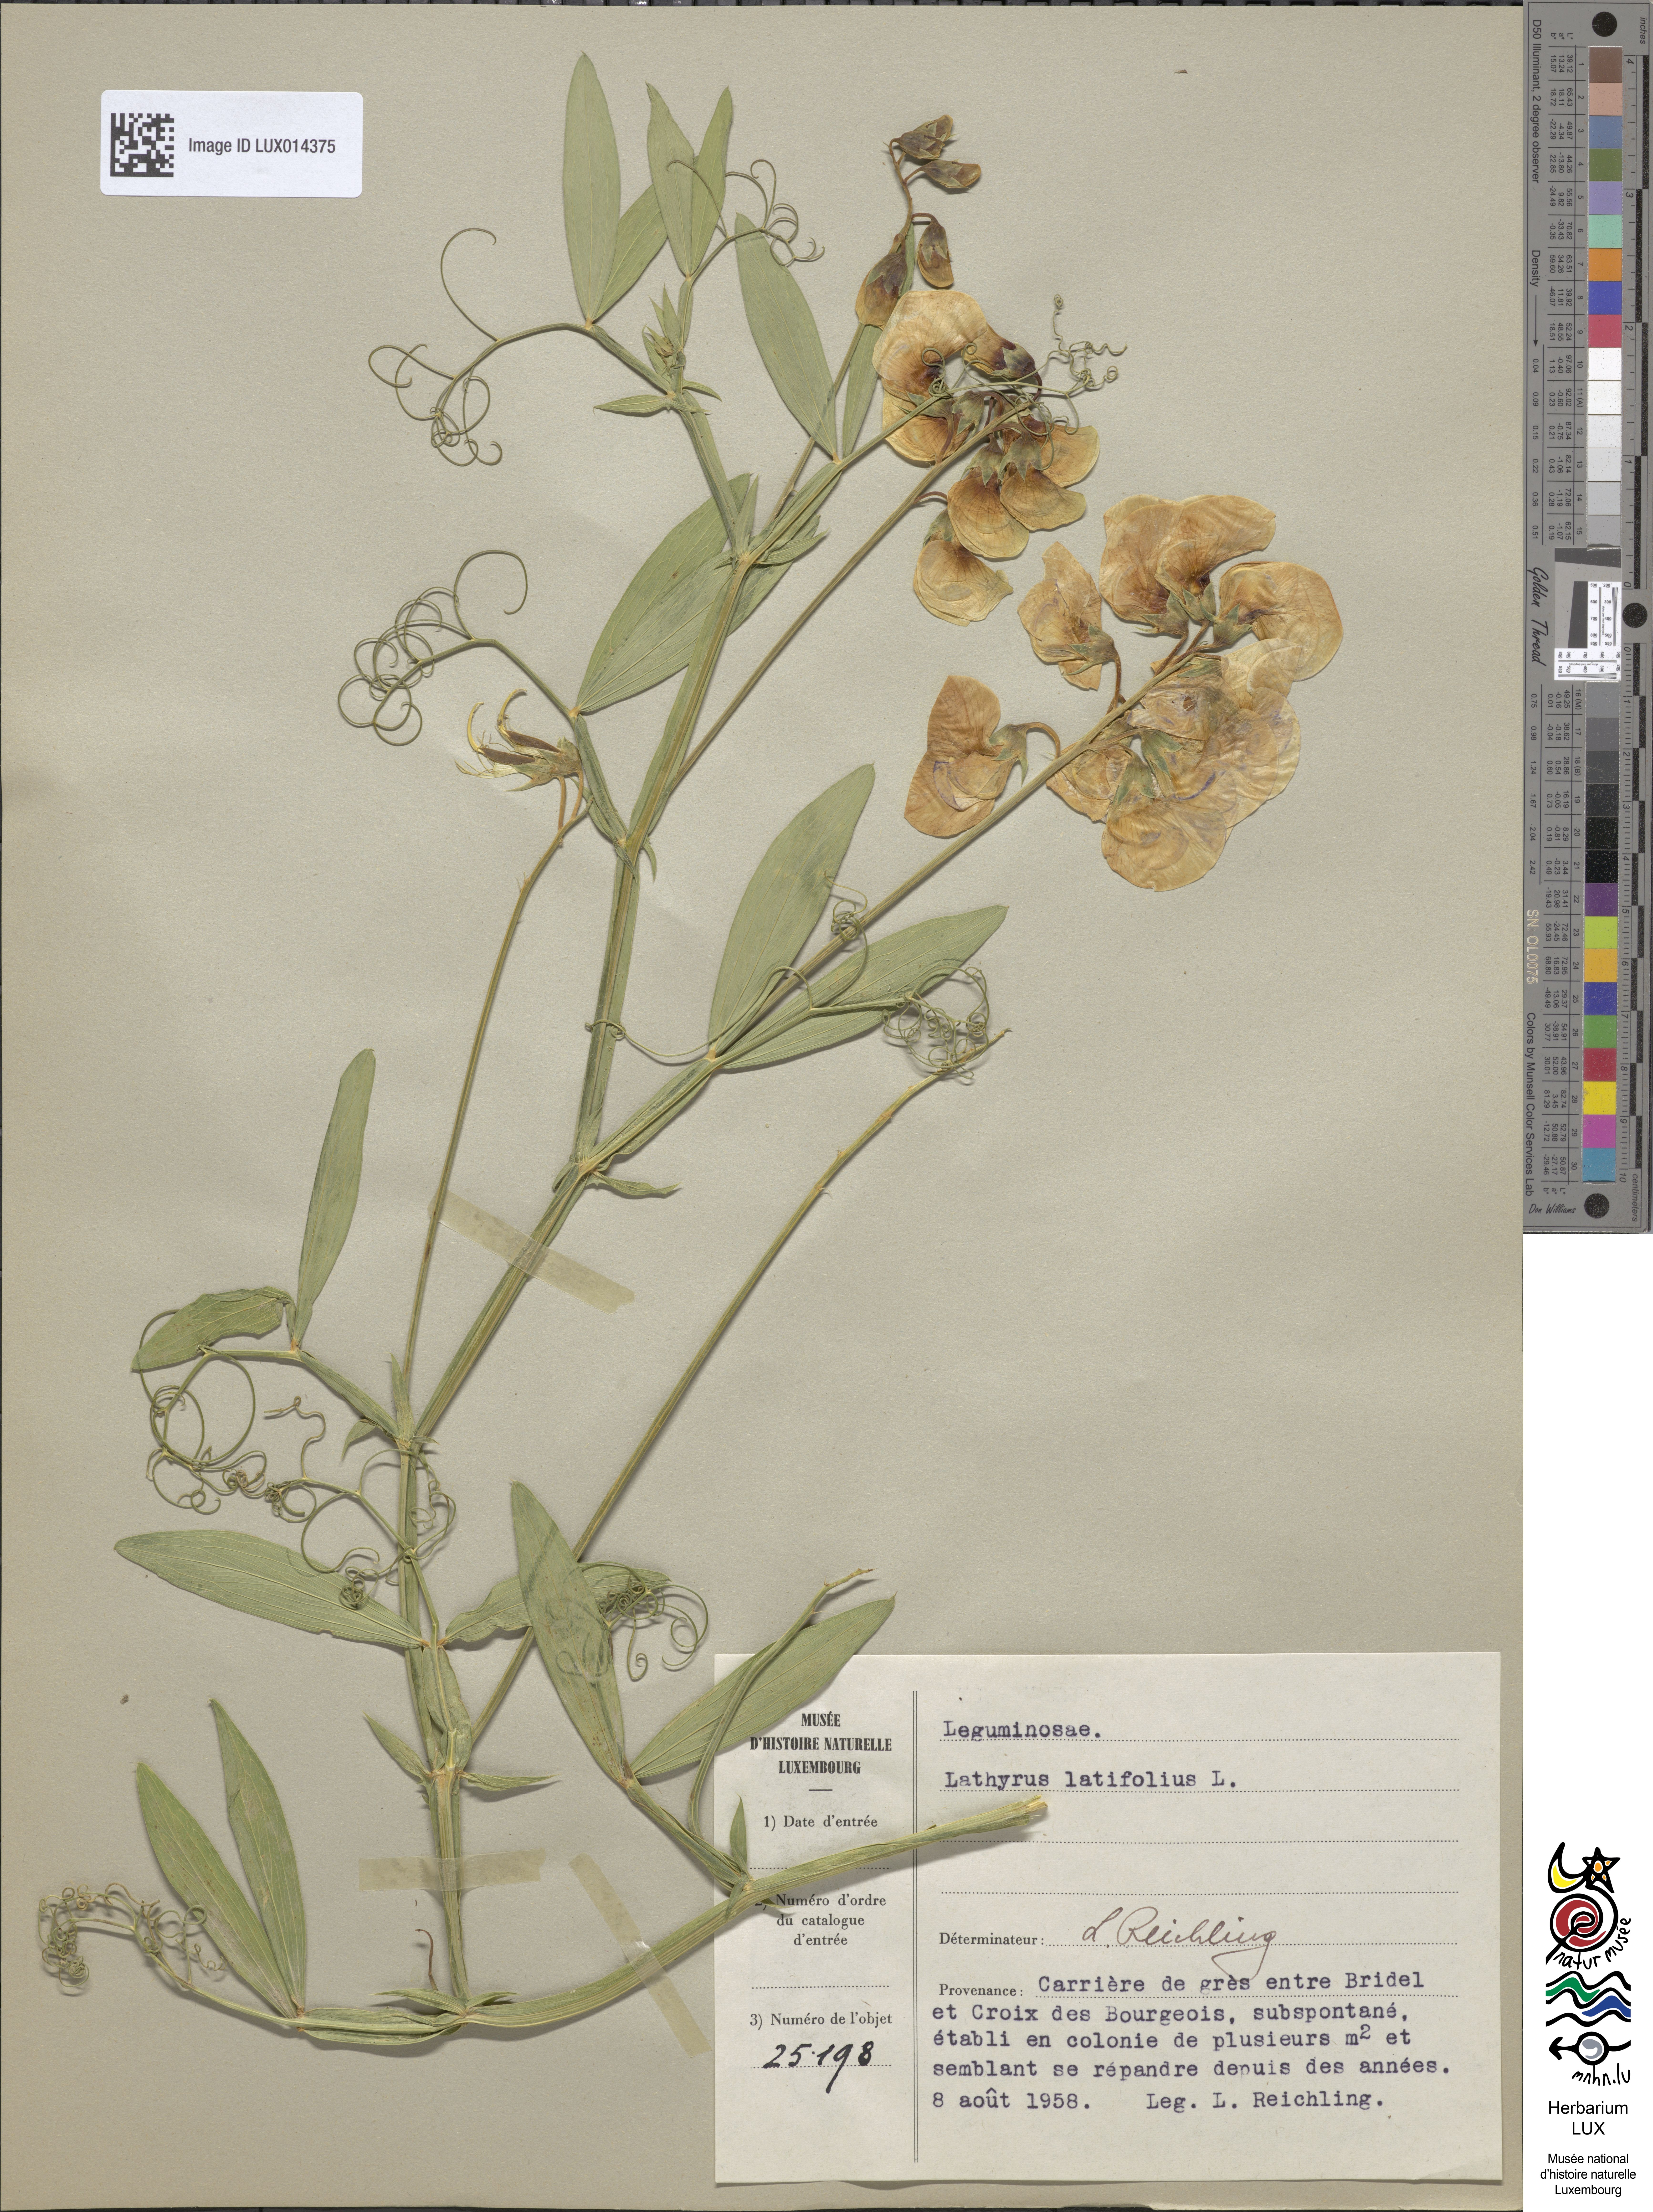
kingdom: Plantae
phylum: Tracheophyta
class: Magnoliopsida
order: Fabales
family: Fabaceae
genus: Lathyrus
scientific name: Lathyrus latifolius
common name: Perennial pea
